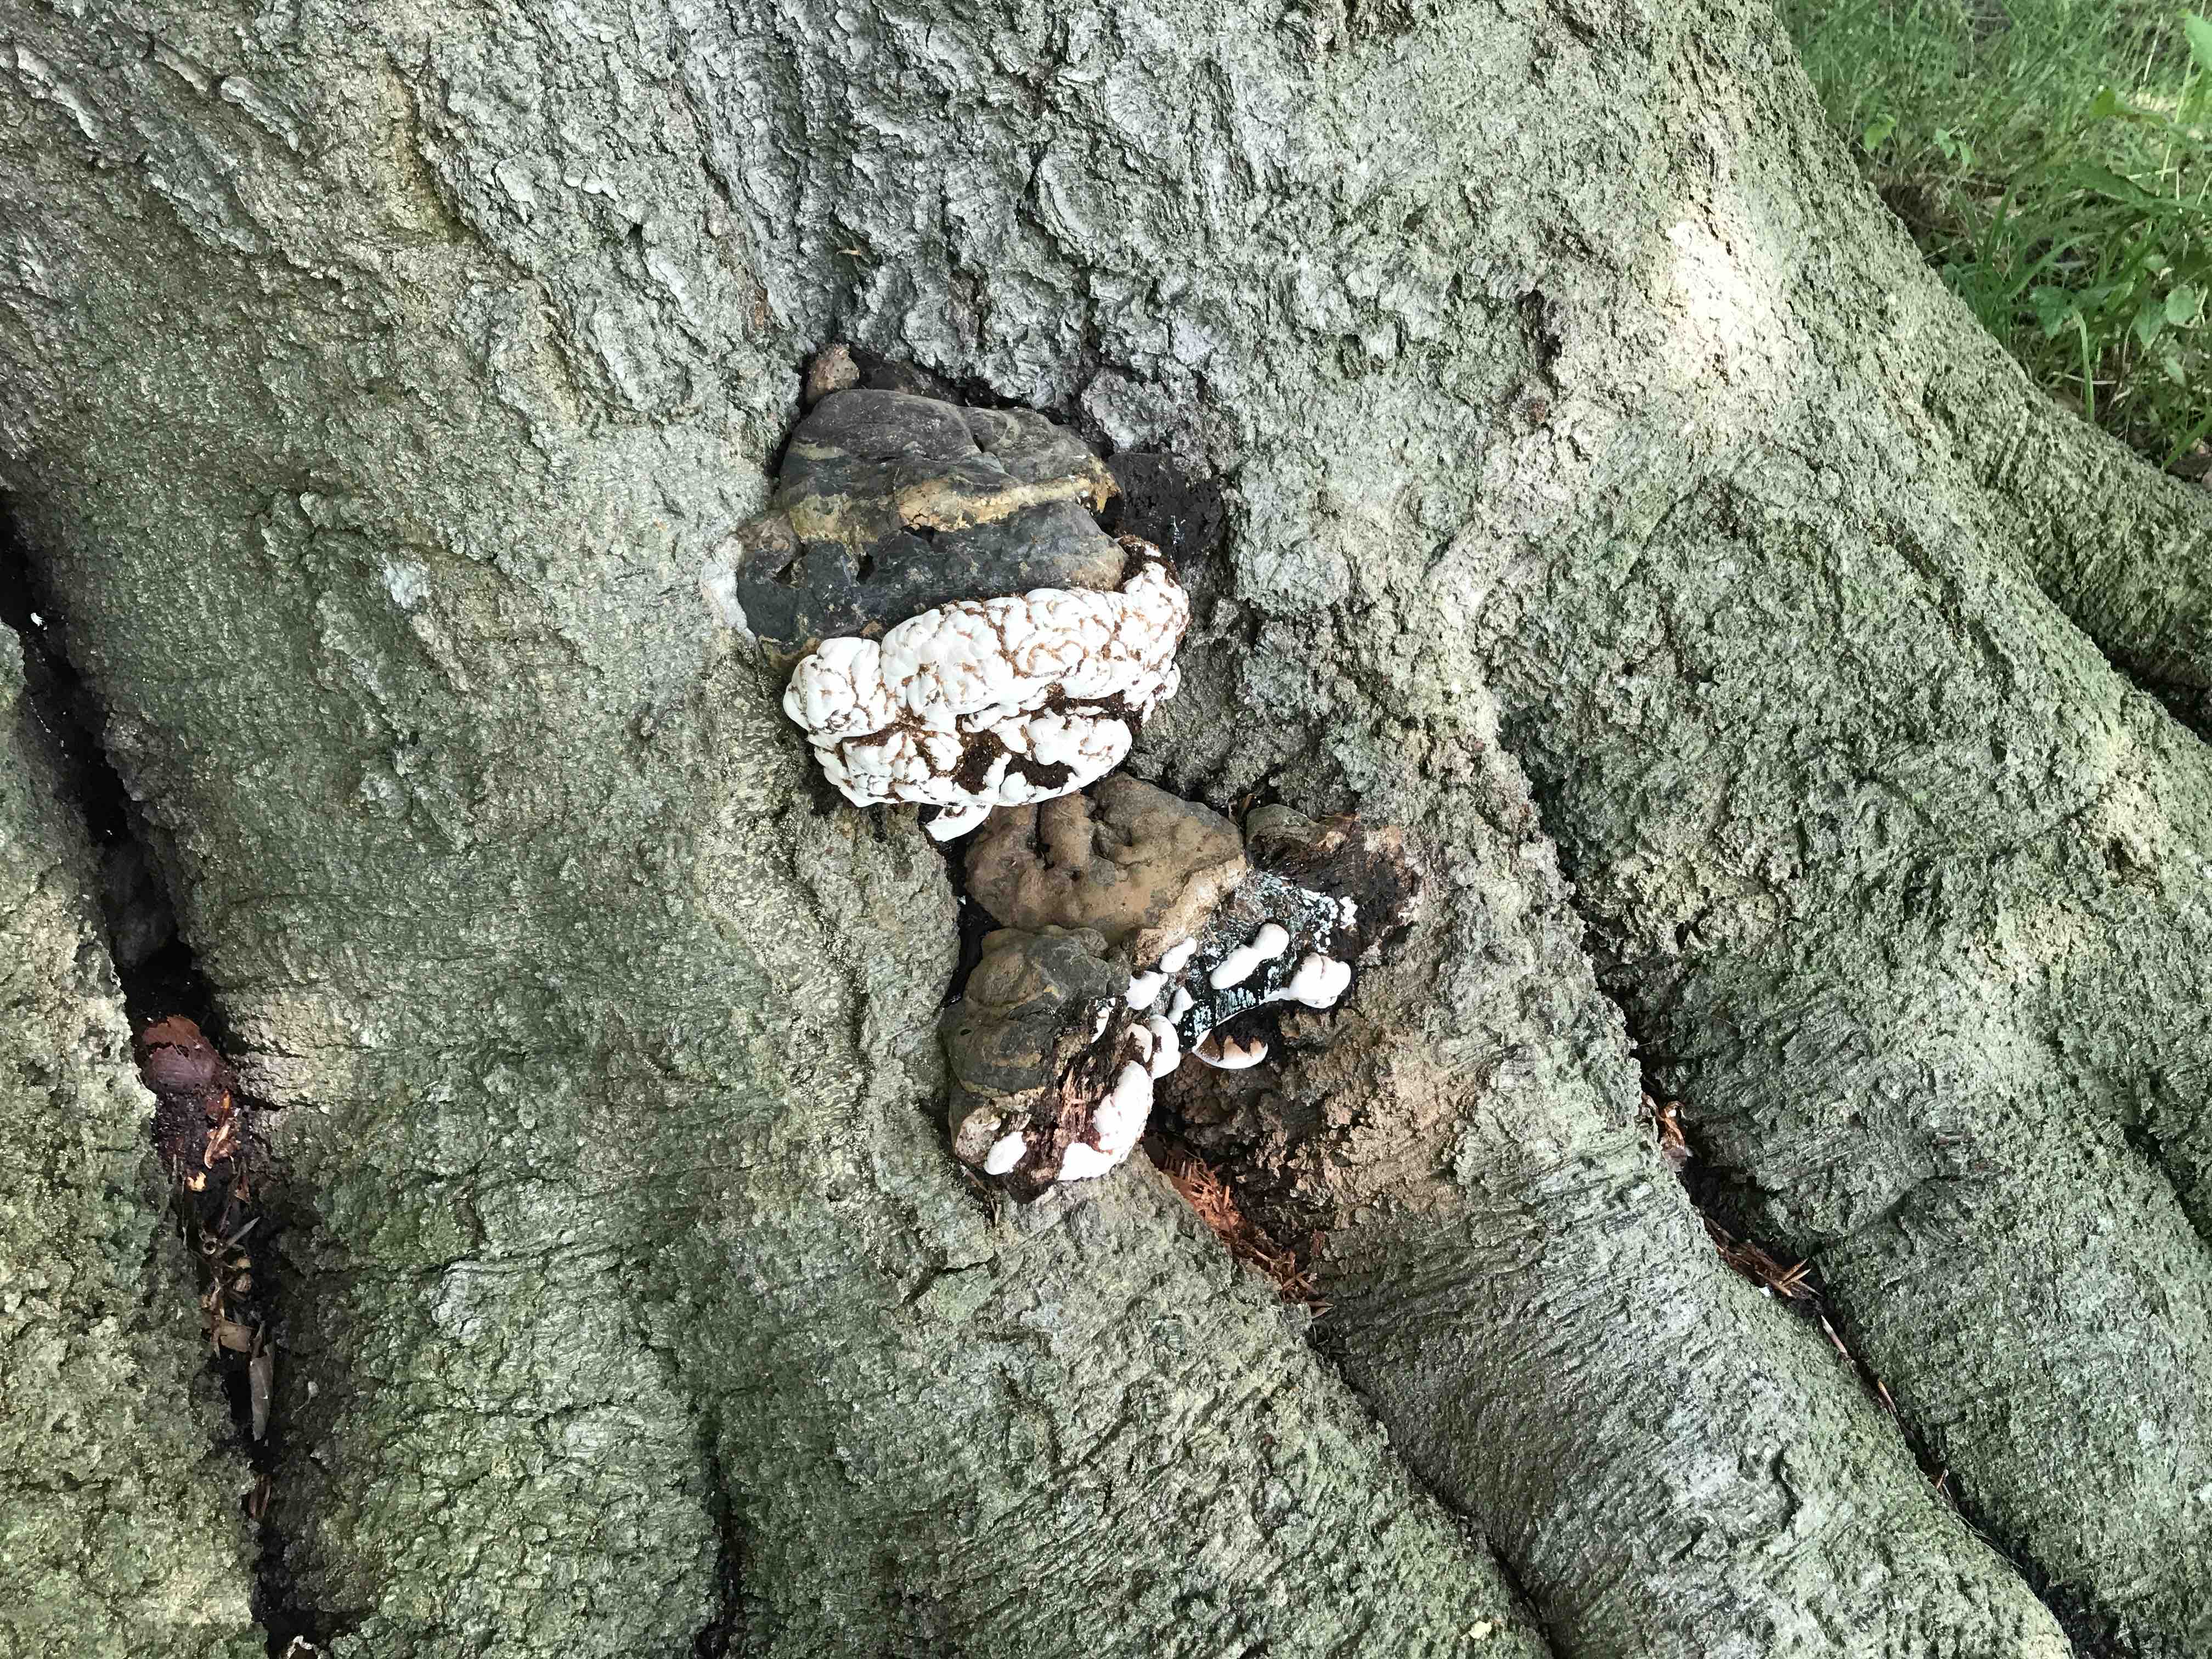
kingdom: Fungi
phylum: Basidiomycota
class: Agaricomycetes
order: Polyporales
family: Polyporaceae
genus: Ganoderma
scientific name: Ganoderma pfeifferi
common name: kobberrød lakporesvamp
